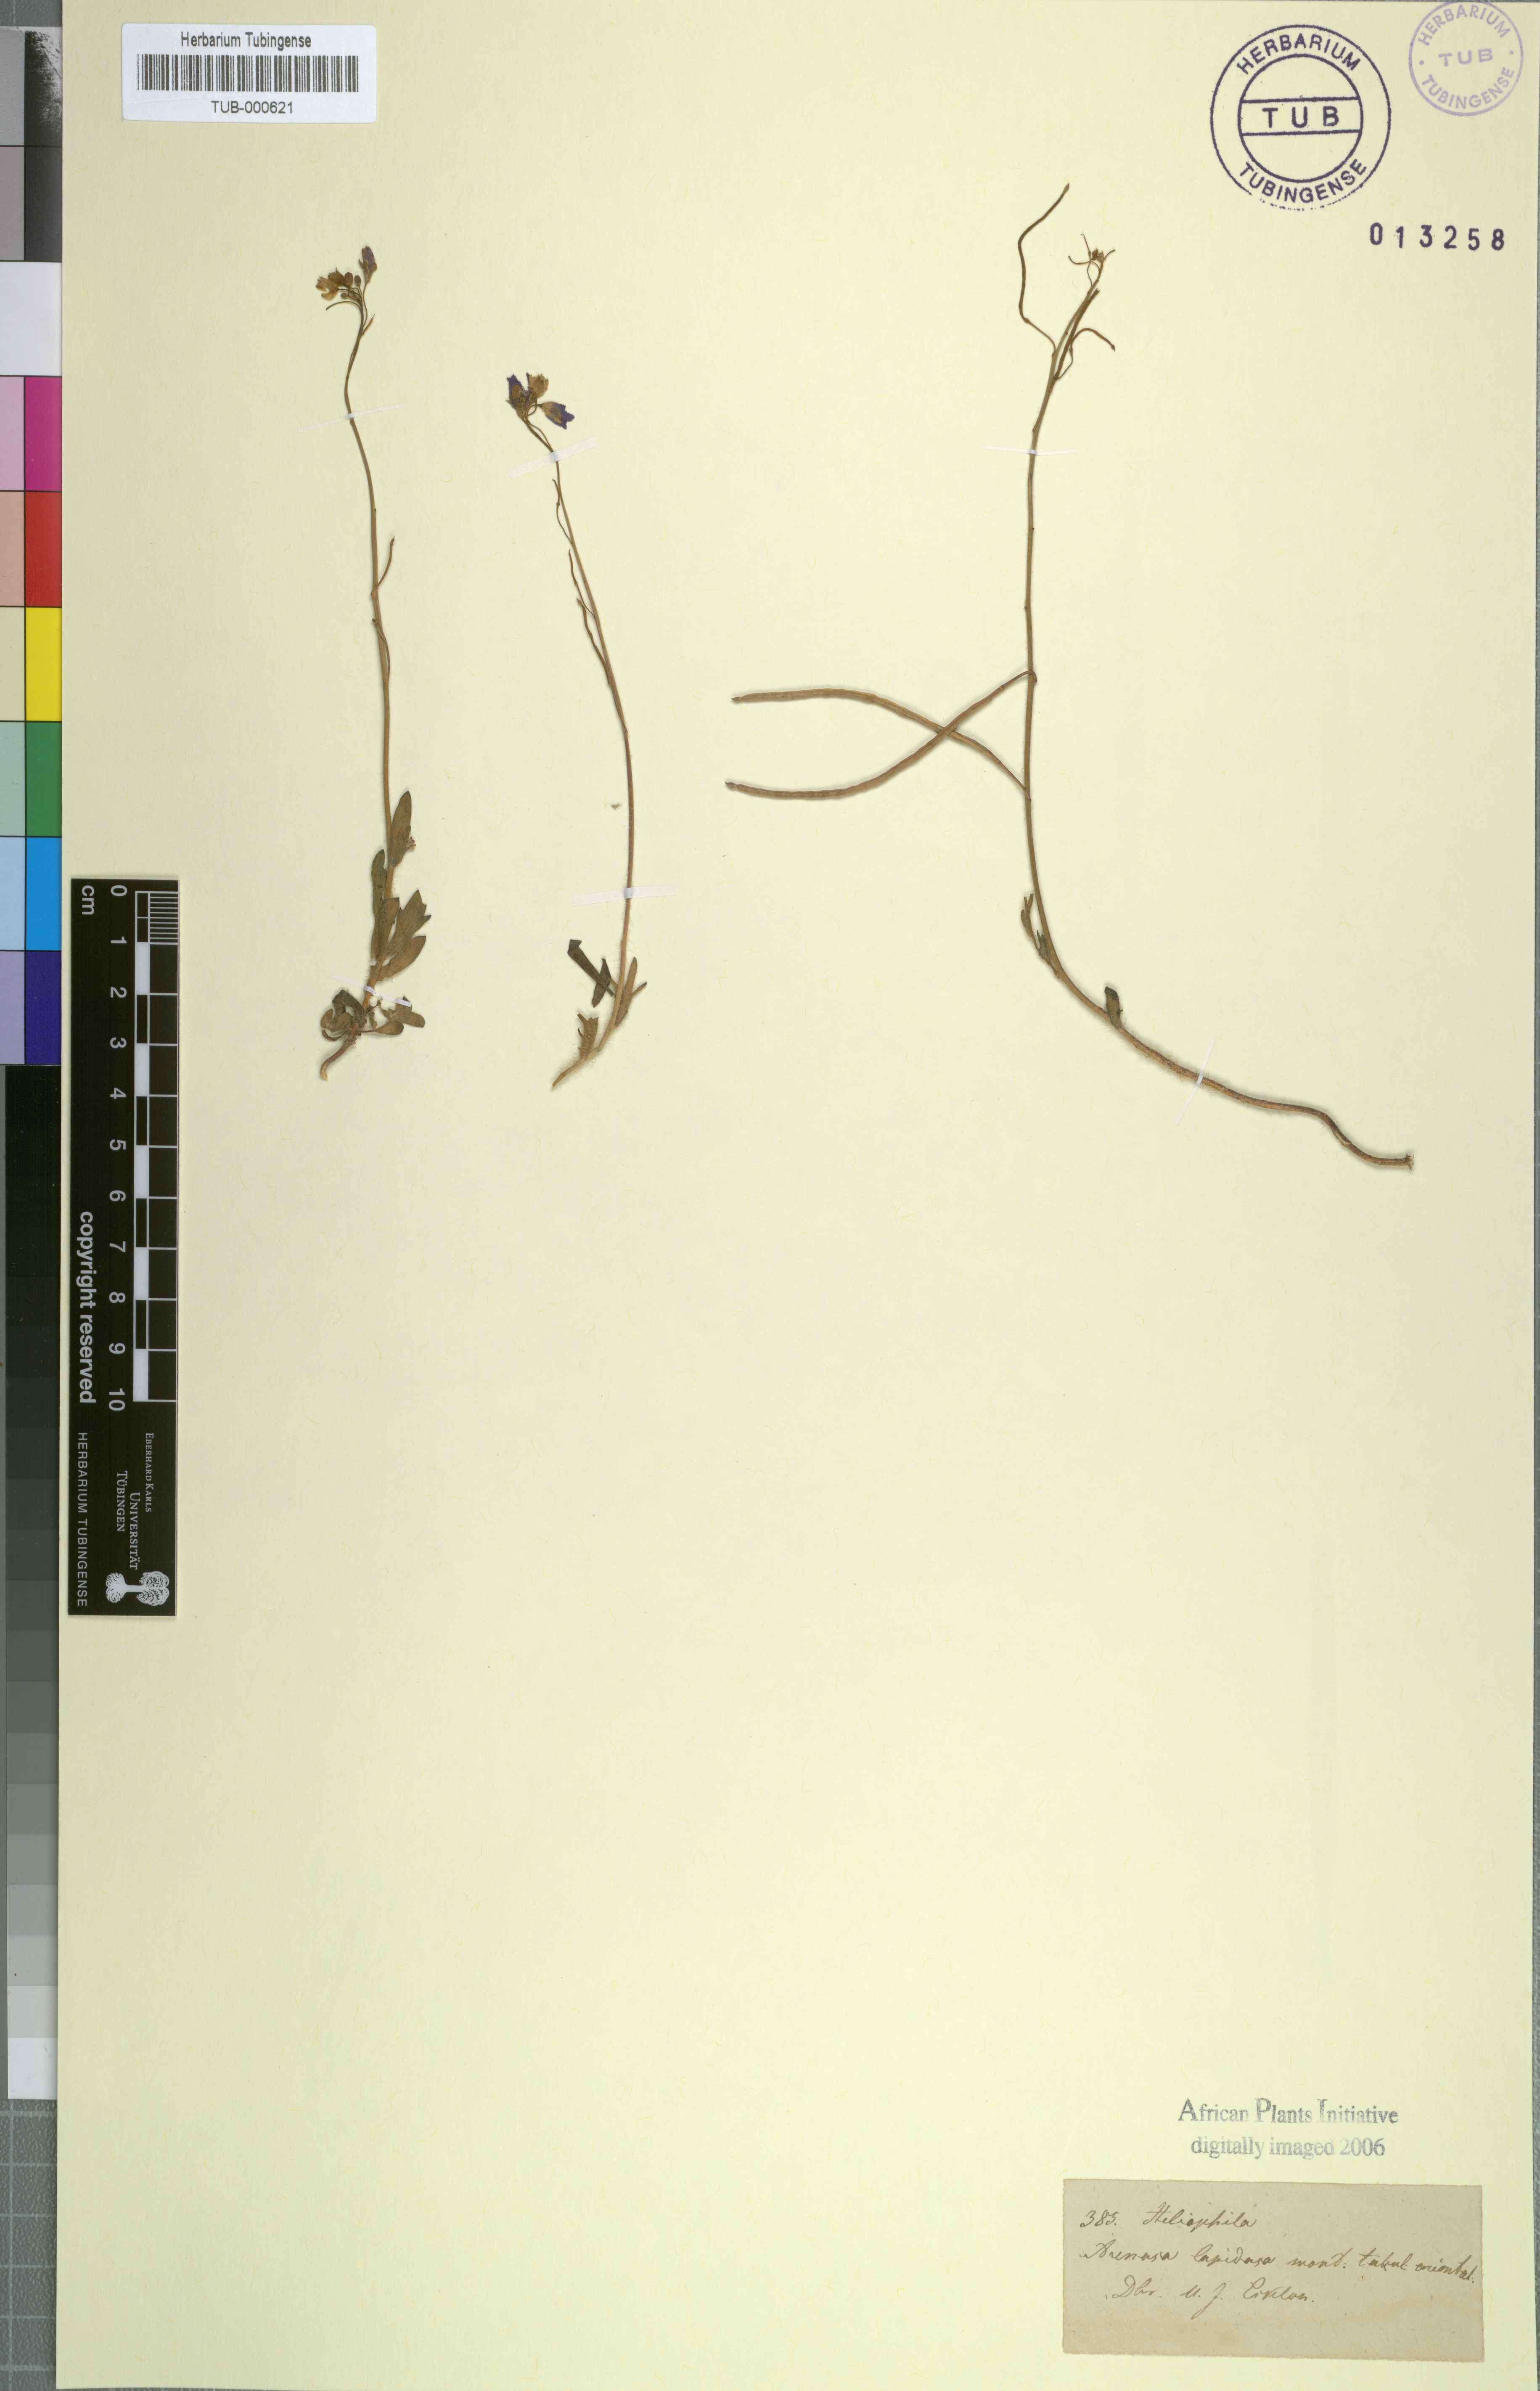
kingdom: Plantae
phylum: Tracheophyta
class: Magnoliopsida
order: Brassicales
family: Brassicaceae
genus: Heliophila
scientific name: Heliophila
